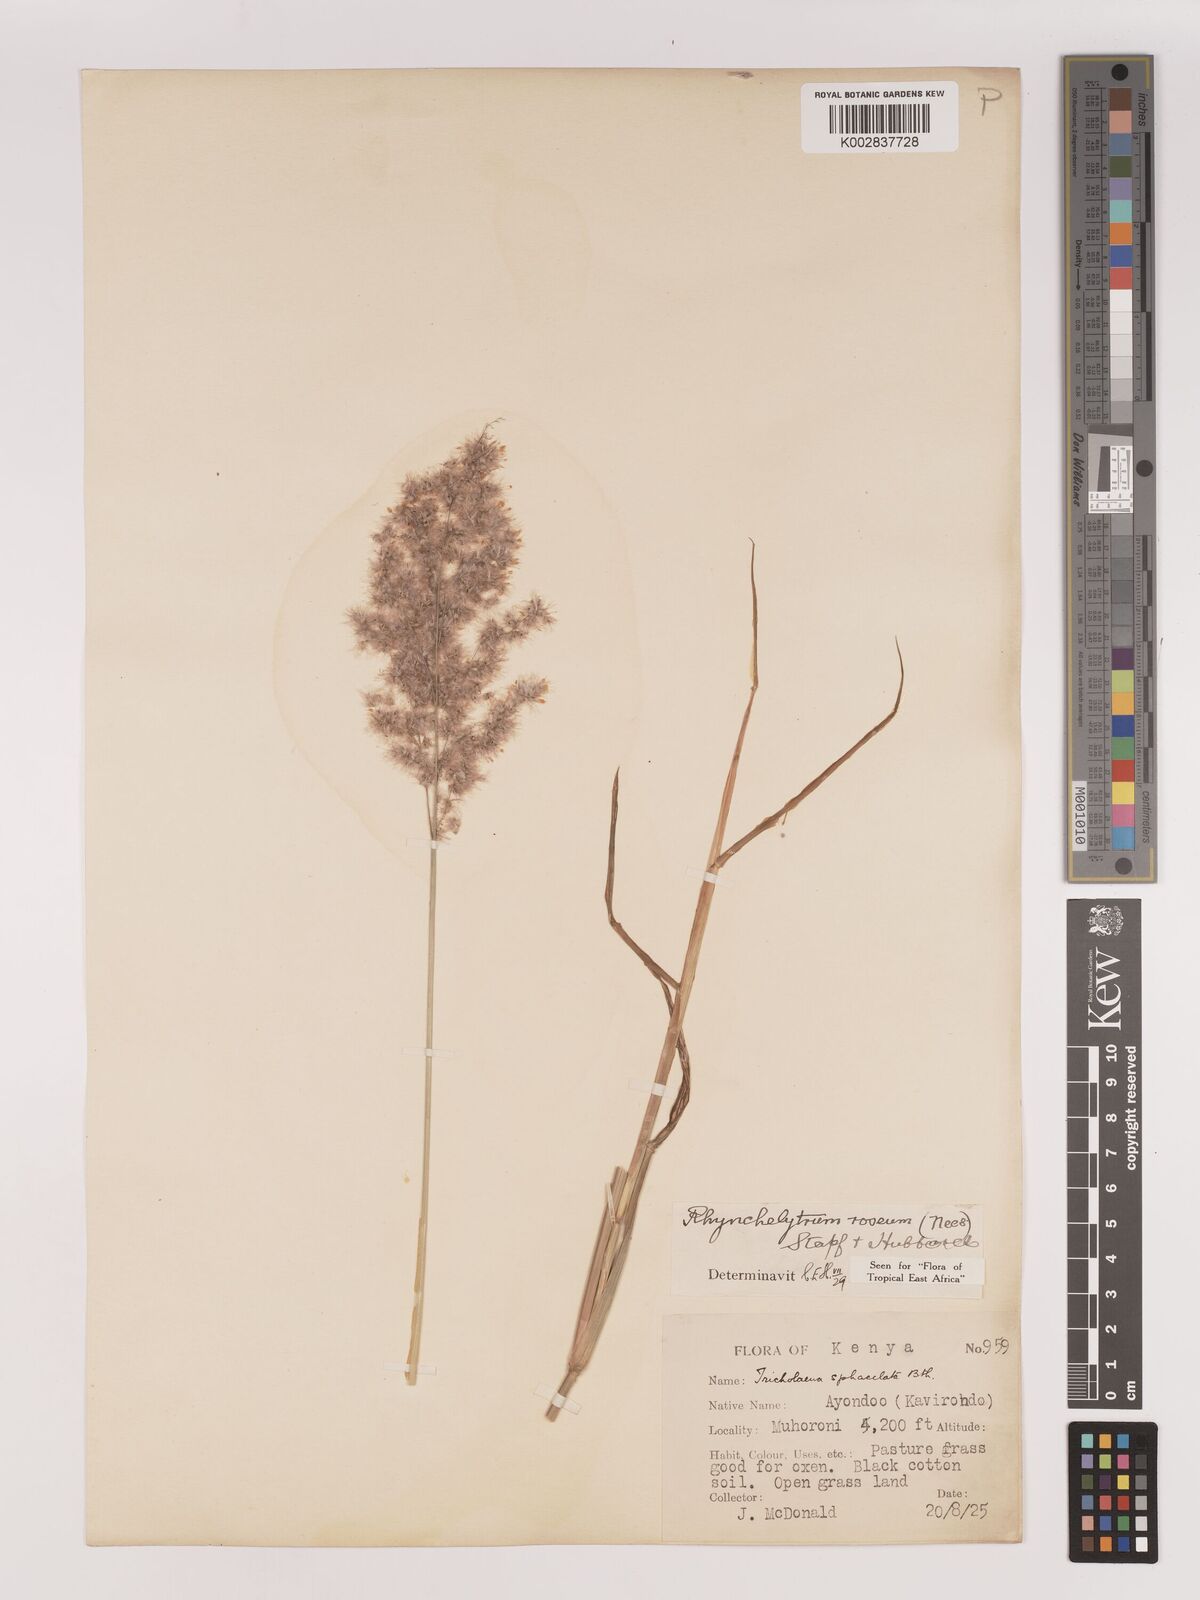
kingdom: Plantae
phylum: Tracheophyta
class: Liliopsida
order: Poales
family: Poaceae
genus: Melinis
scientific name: Melinis repens
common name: Rose natal grass
